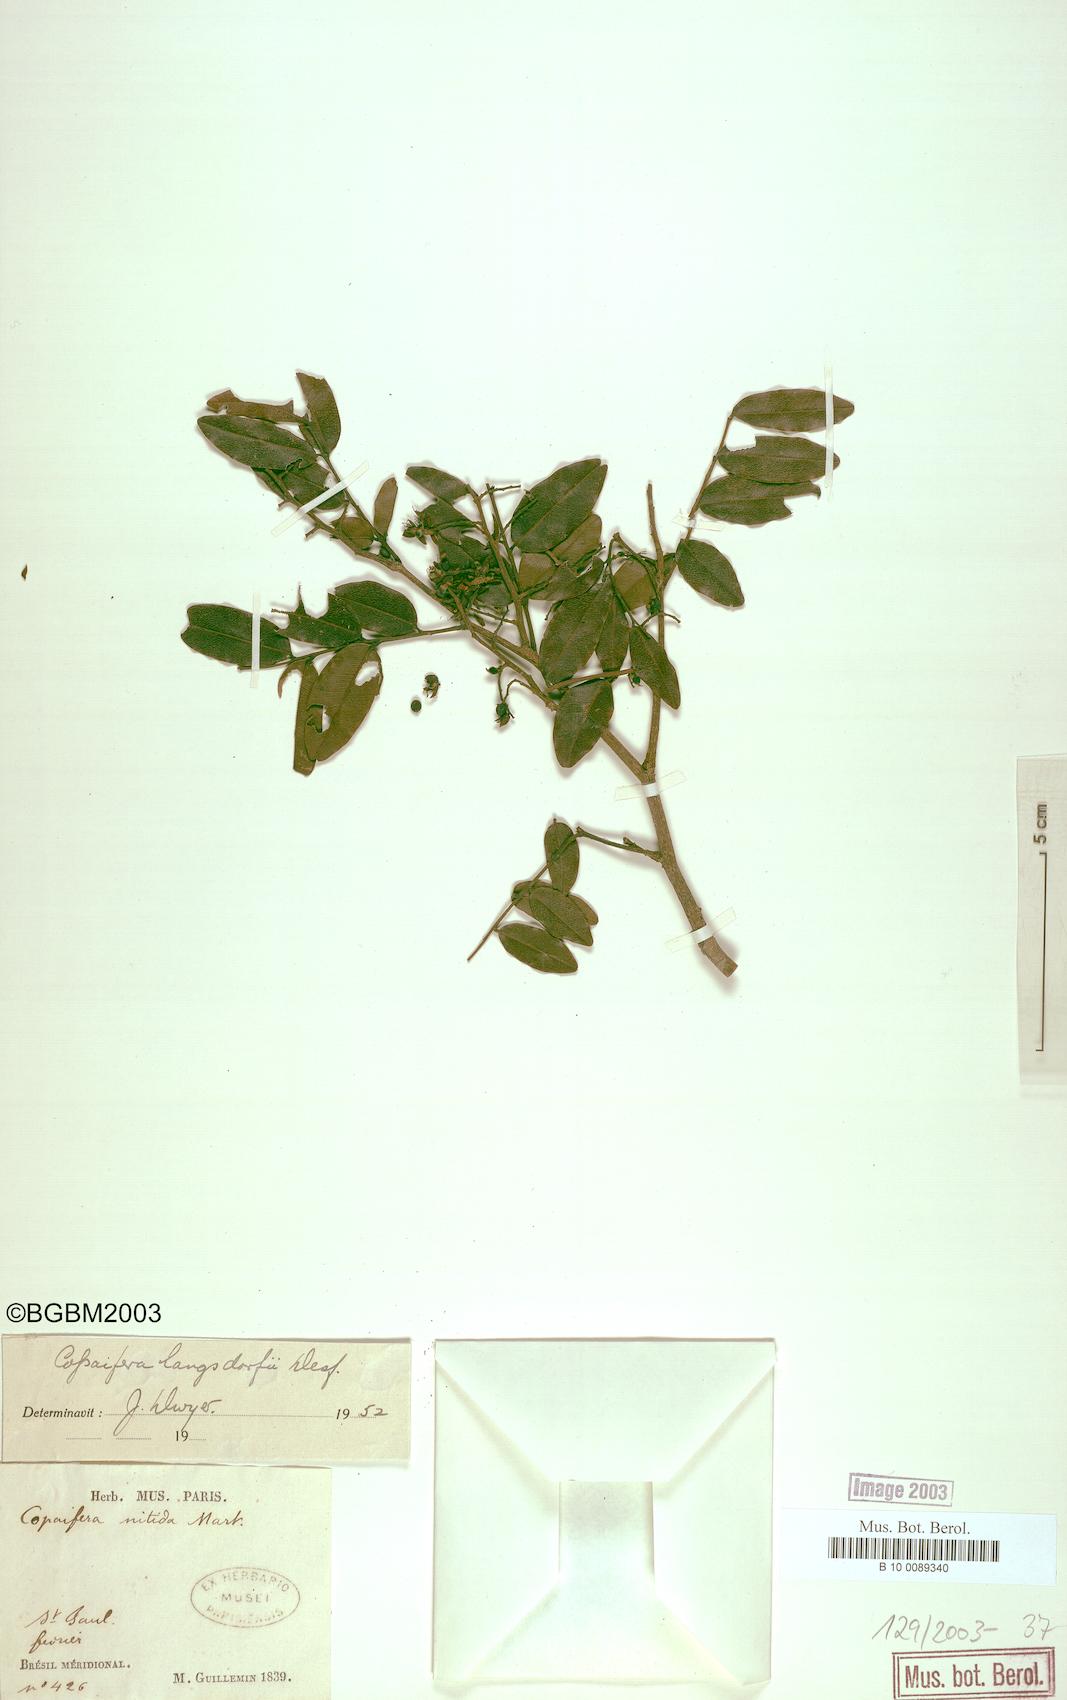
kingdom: Plantae
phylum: Tracheophyta
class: Magnoliopsida
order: Fabales
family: Fabaceae
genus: Copaifera
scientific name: Copaifera langsdorffii
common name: Brazilian diesel tree
